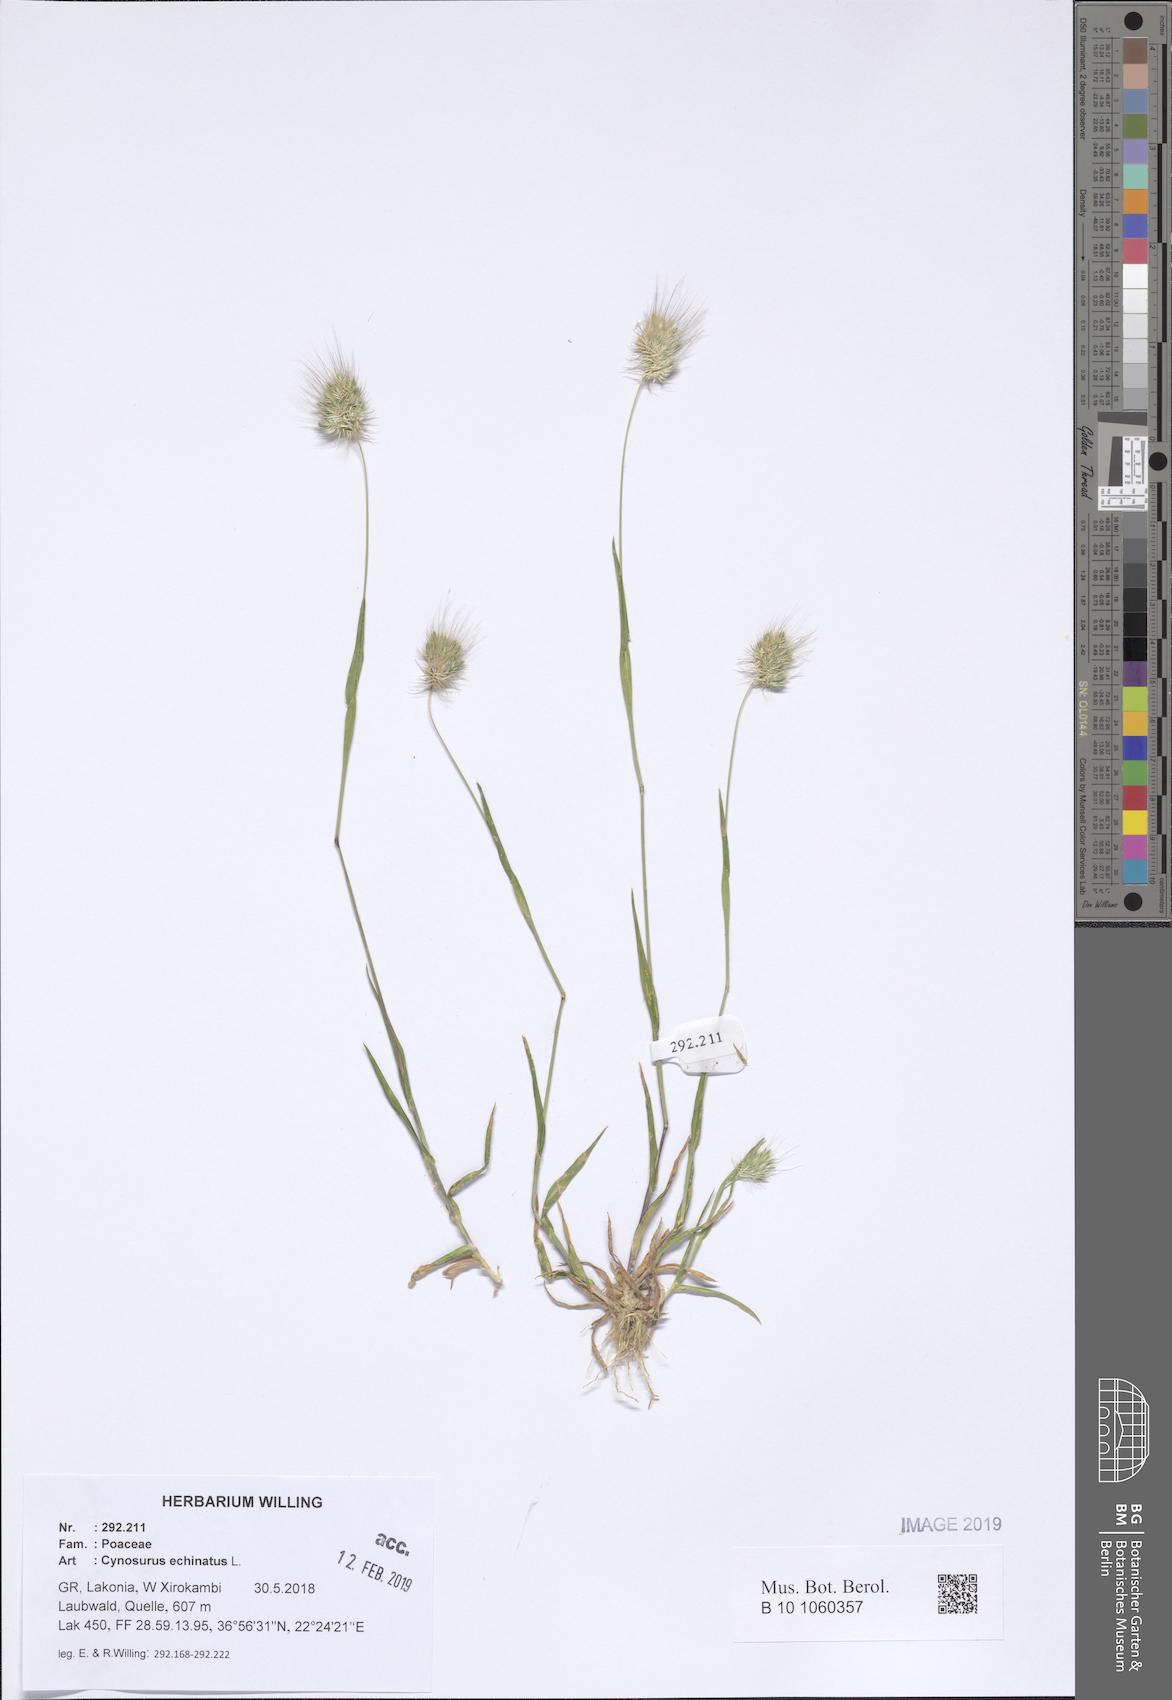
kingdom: Plantae
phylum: Tracheophyta
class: Liliopsida
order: Poales
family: Poaceae
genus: Cynosurus
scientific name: Cynosurus echinatus
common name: Rough dog's-tail
